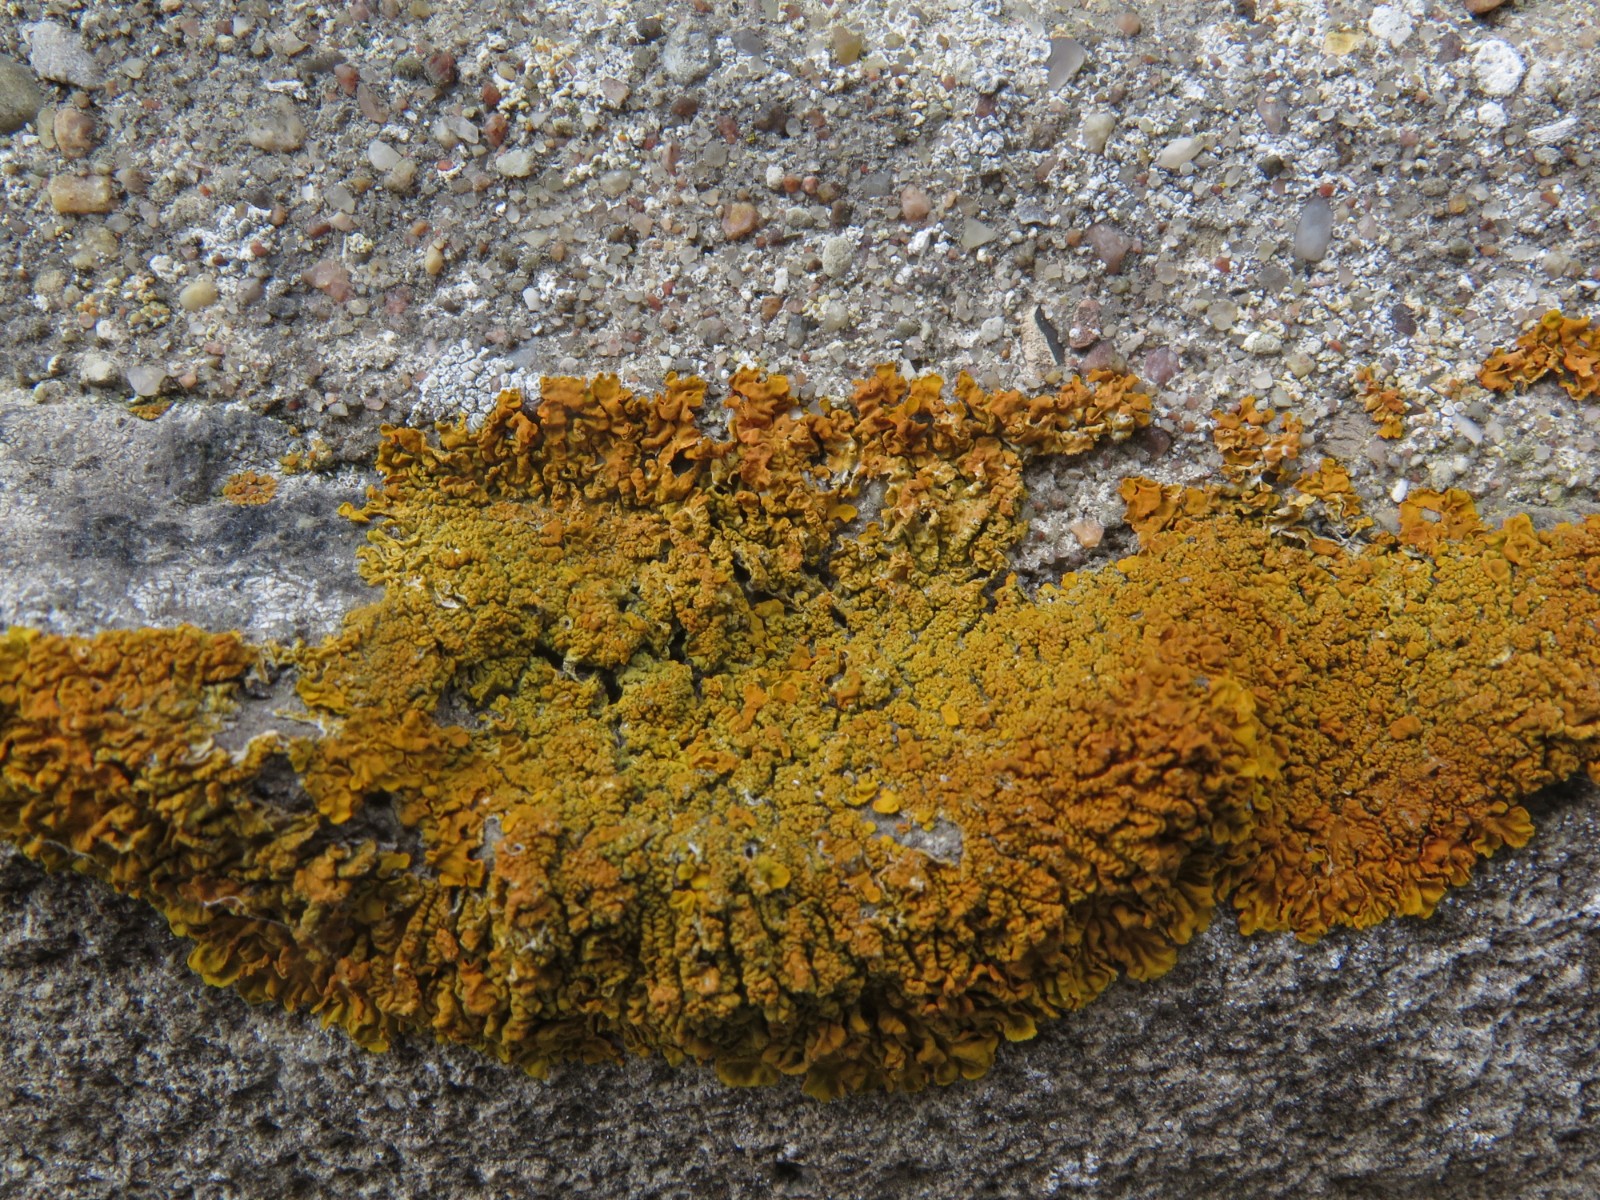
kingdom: Fungi
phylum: Ascomycota
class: Lecanoromycetes
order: Teloschistales
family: Teloschistaceae
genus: Xanthoria
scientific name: Xanthoria calcicola
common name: vortet væggelav
